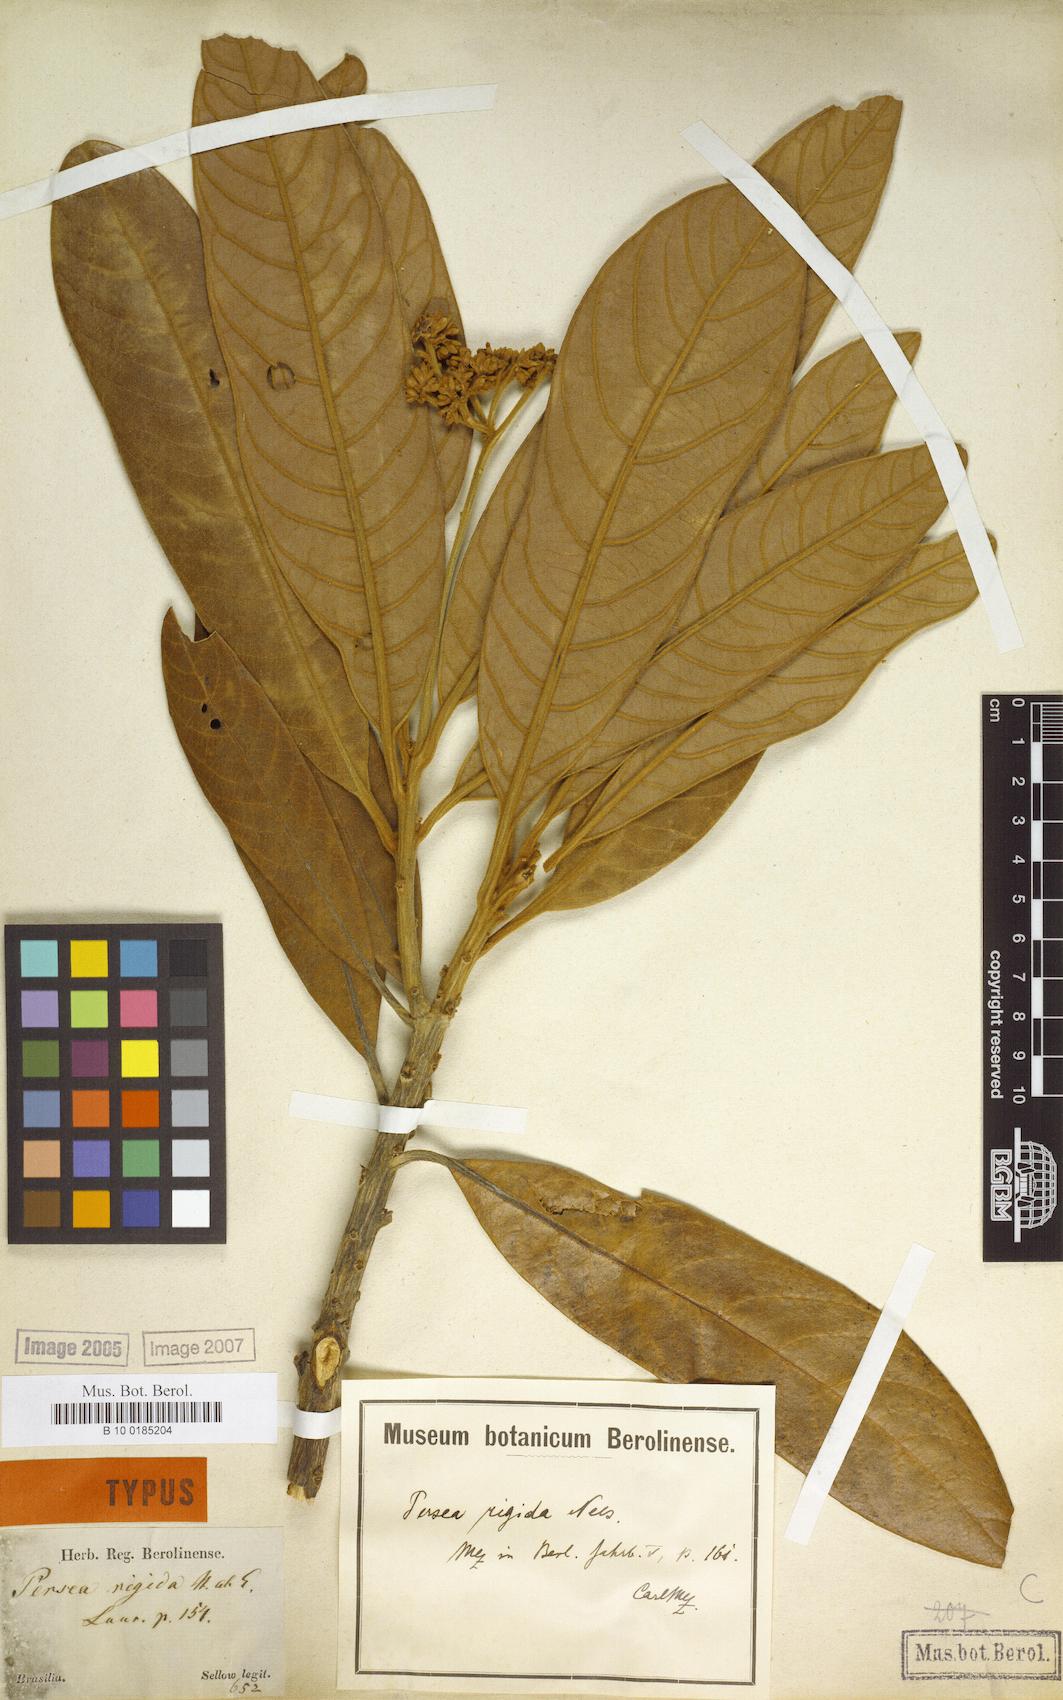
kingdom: Plantae
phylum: Tracheophyta
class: Magnoliopsida
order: Laurales
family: Lauraceae
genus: Persea
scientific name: Persea rigida
